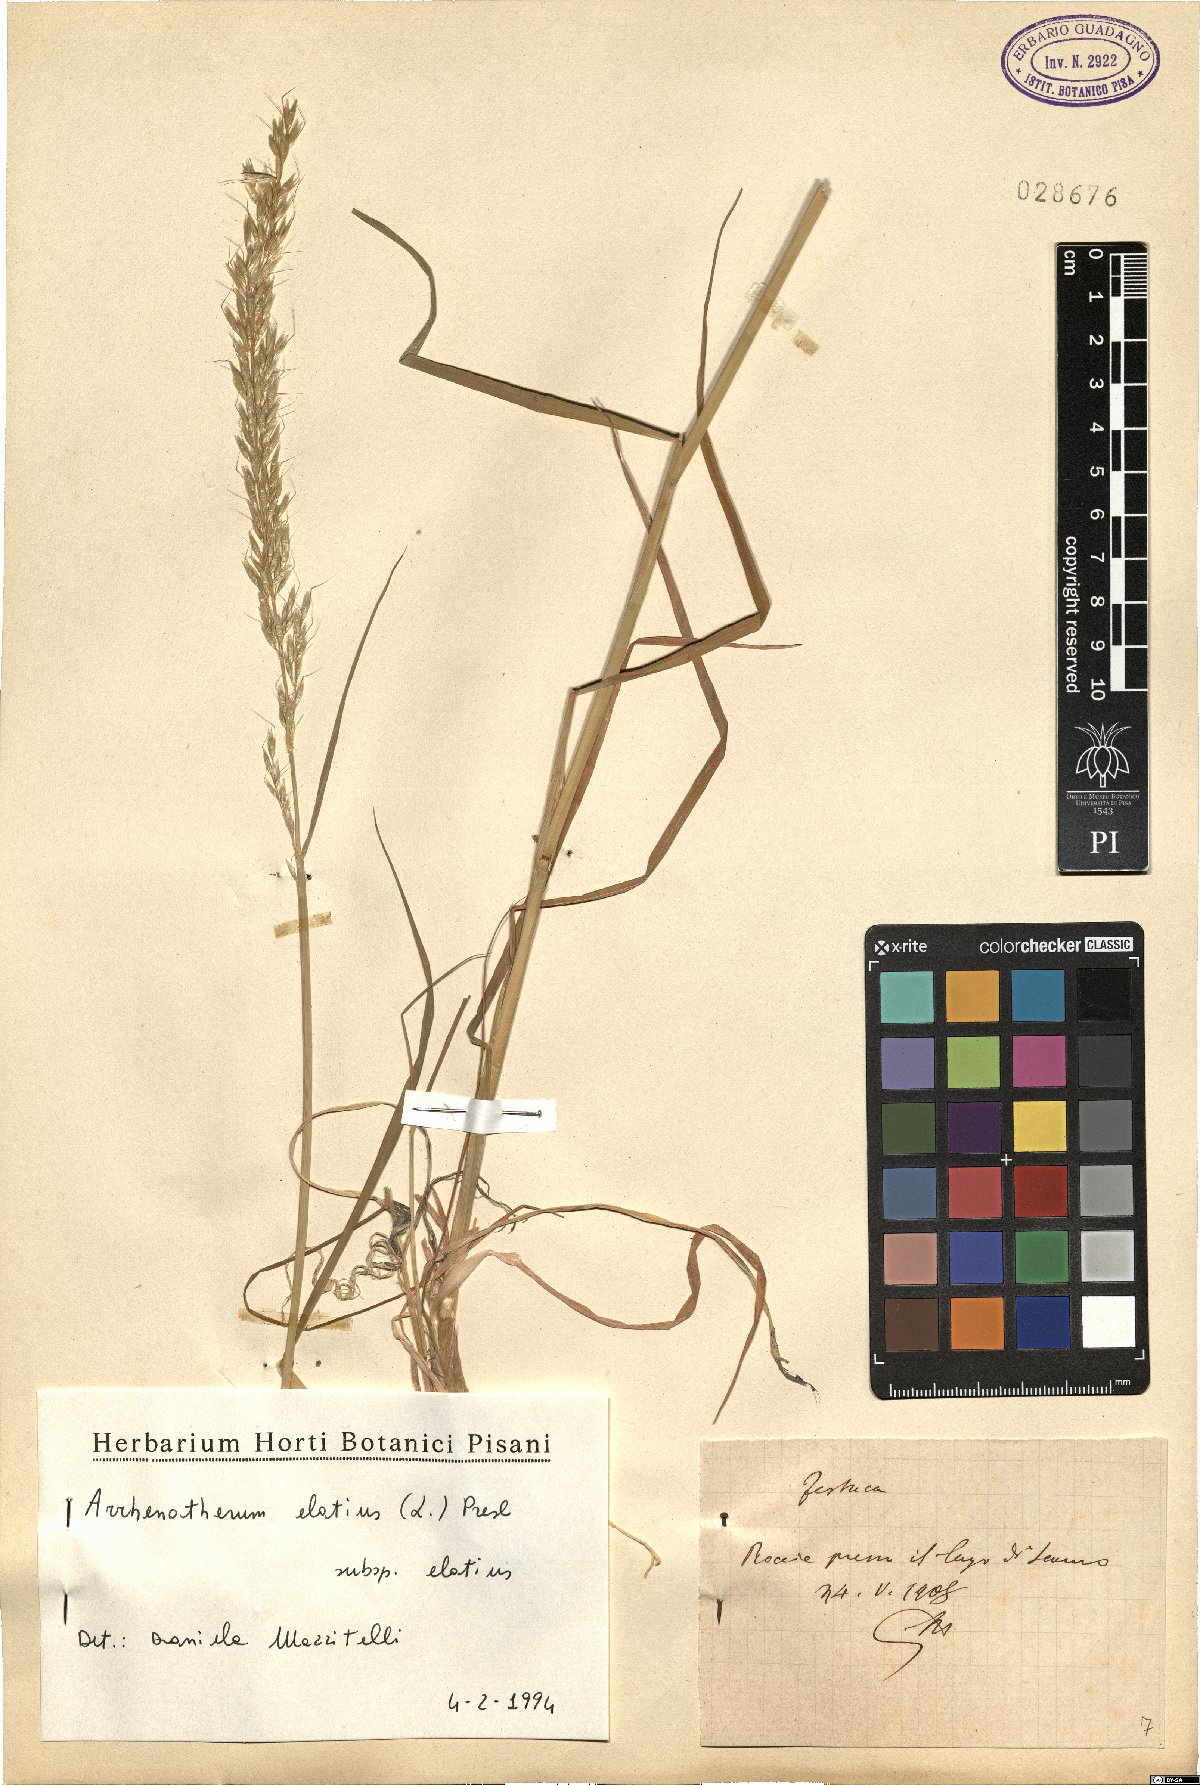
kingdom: Plantae
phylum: Tracheophyta
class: Liliopsida
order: Poales
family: Poaceae
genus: Arrhenatherum
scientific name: Arrhenatherum elatius
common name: Tall oatgrass
